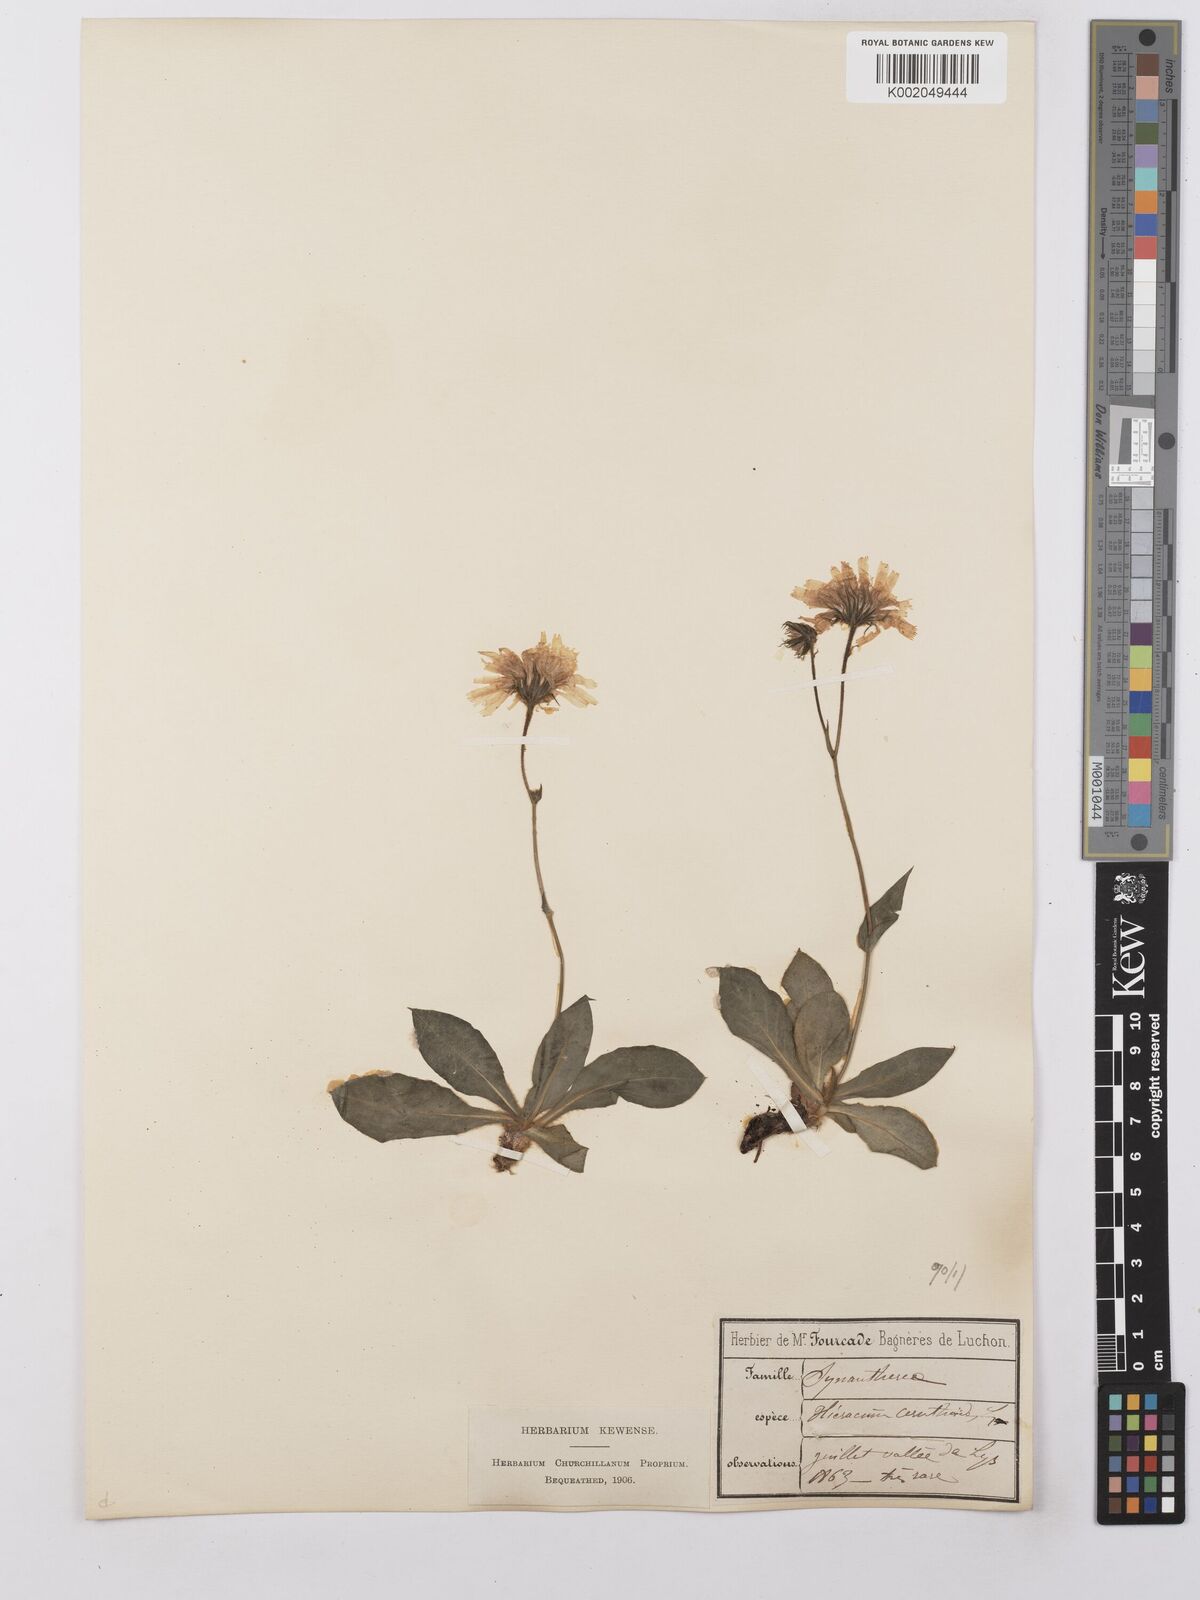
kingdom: Plantae
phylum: Tracheophyta
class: Magnoliopsida
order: Asterales
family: Asteraceae
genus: Hieracium
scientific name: Hieracium ramondii
